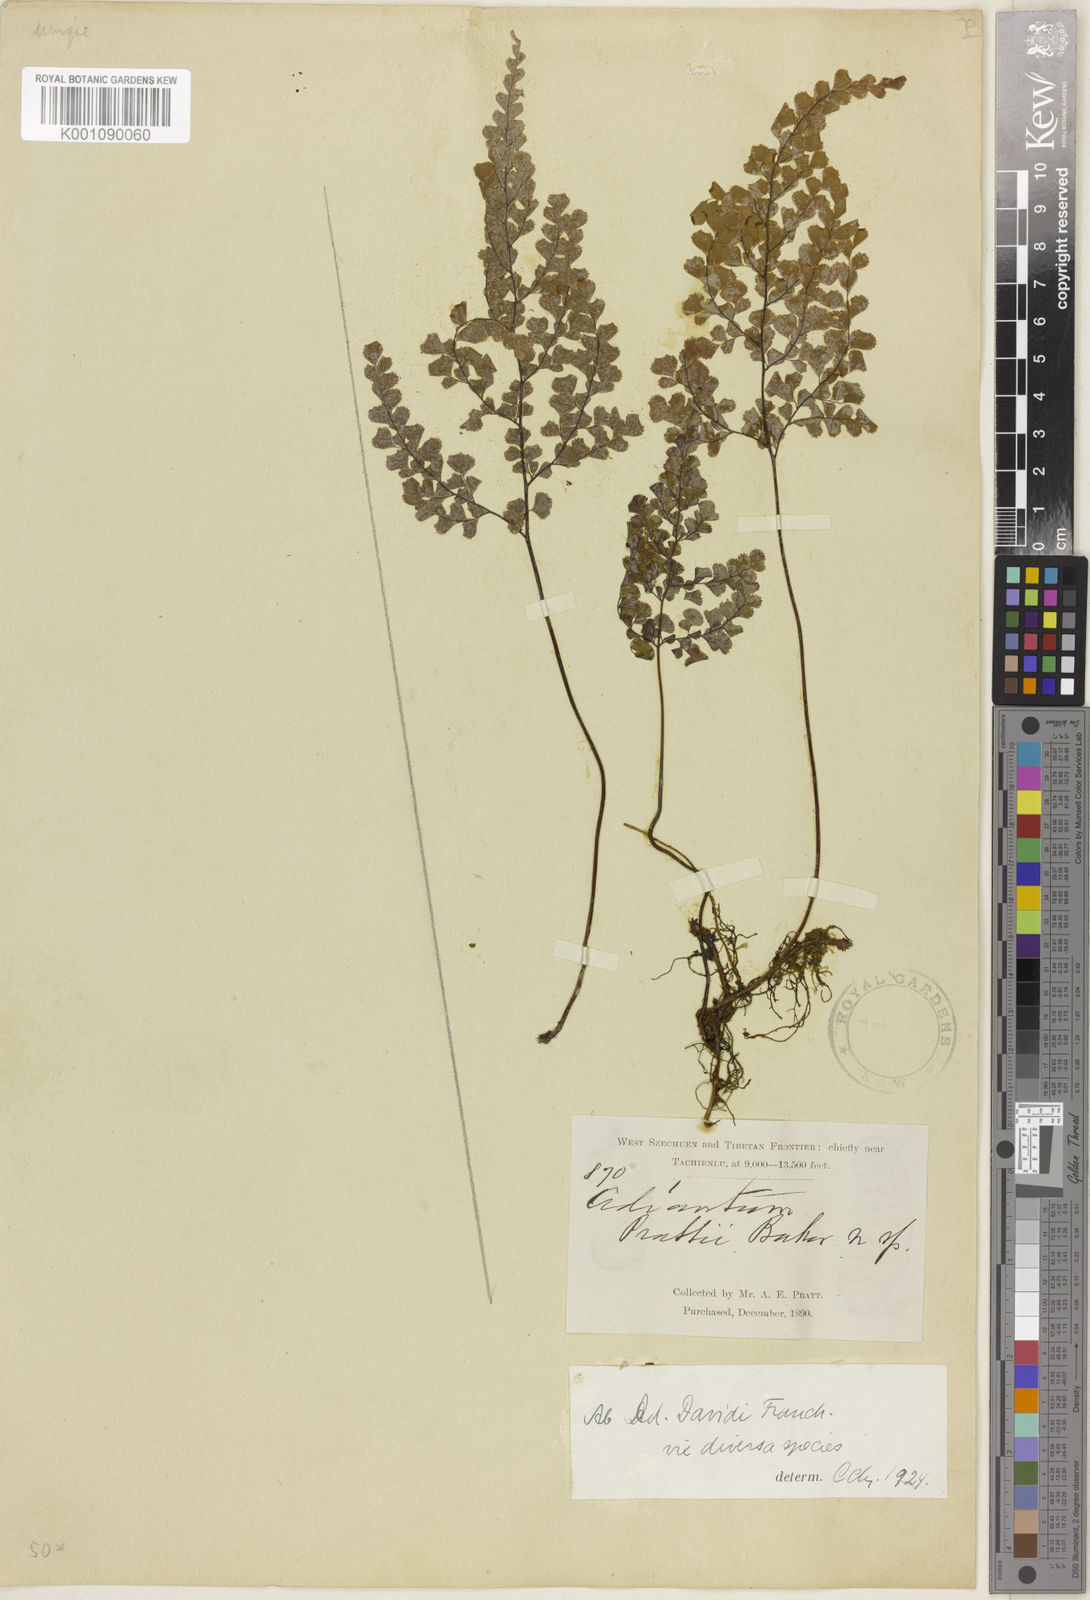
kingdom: Plantae
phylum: Tracheophyta
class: Polypodiopsida
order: Polypodiales
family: Pteridaceae
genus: Adiantum
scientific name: Adiantum davidii
